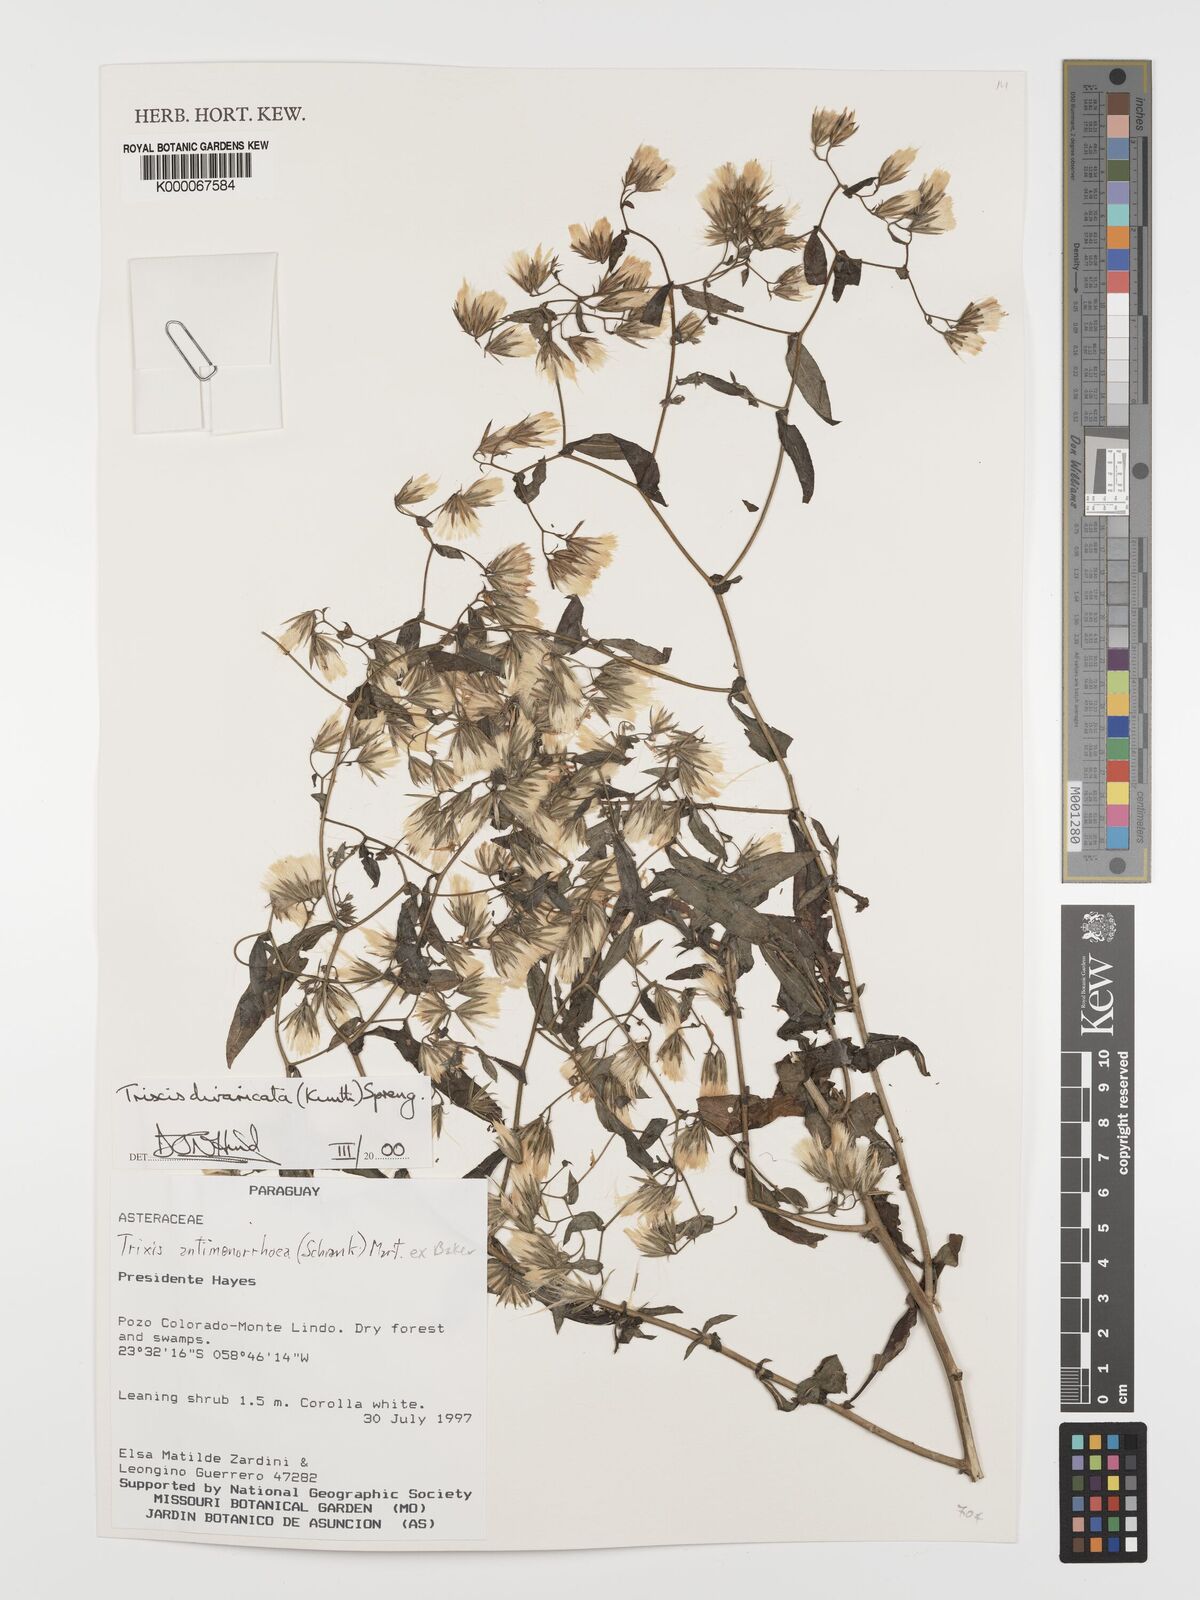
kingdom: Plantae
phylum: Tracheophyta
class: Magnoliopsida
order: Asterales
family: Asteraceae
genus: Trixis
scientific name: Trixis divaricata
